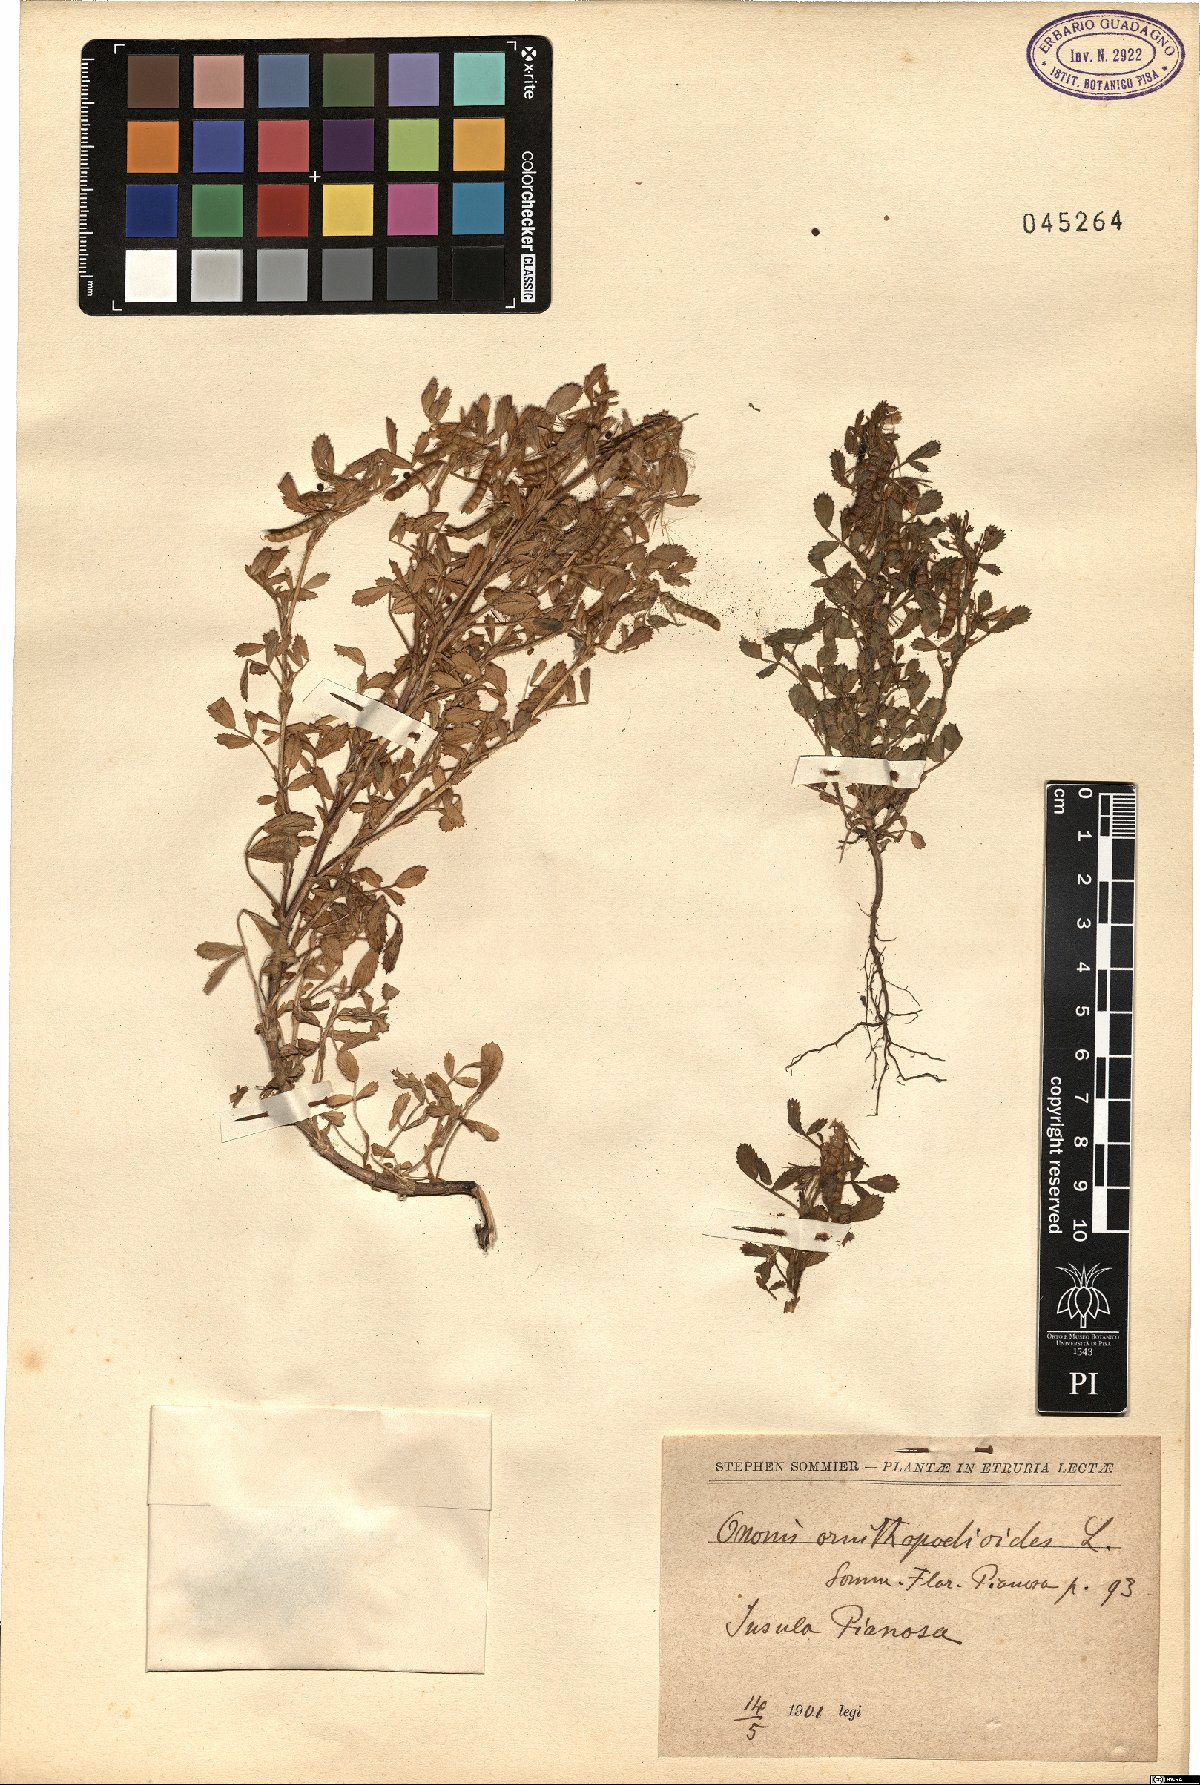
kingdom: Plantae
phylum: Tracheophyta
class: Magnoliopsida
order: Fabales
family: Fabaceae
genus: Ononis
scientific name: Ononis ornithopodioides
